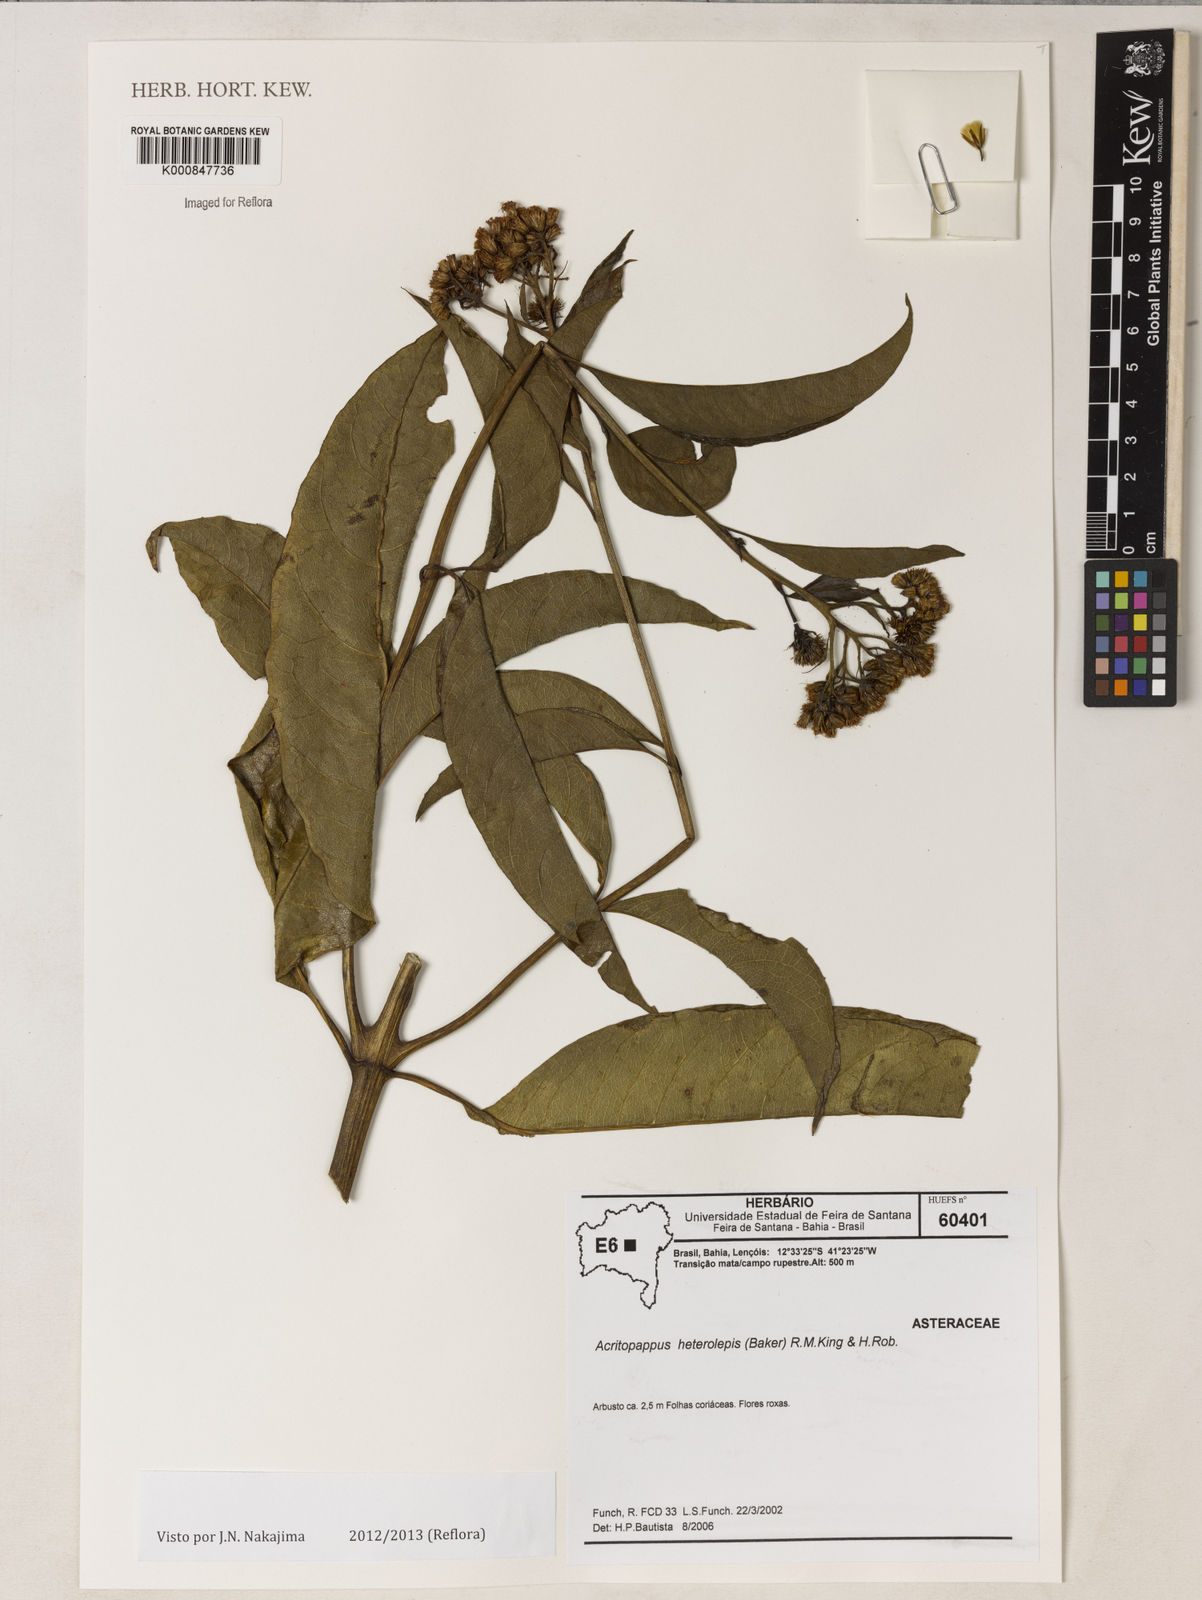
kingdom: Plantae
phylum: Tracheophyta
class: Magnoliopsida
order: Asterales
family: Asteraceae
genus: Acritopappus
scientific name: Acritopappus heterolepis
